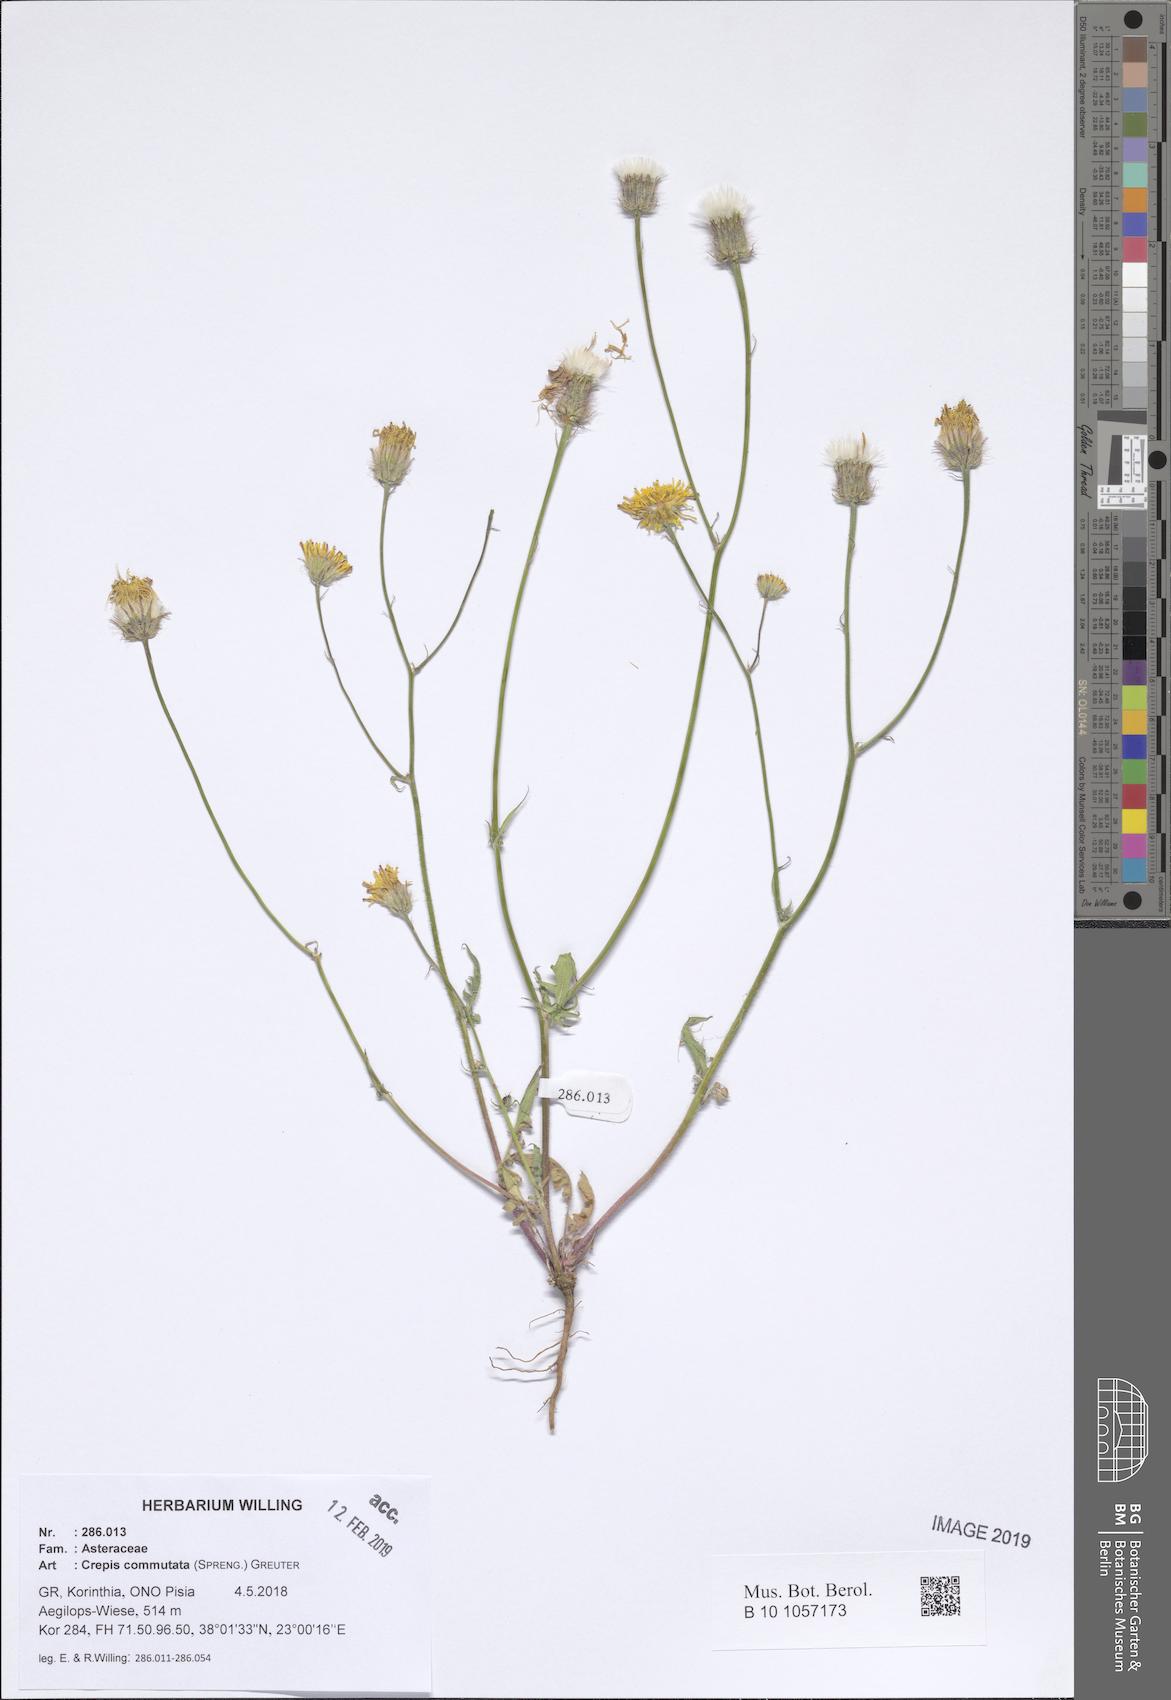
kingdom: Plantae
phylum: Tracheophyta
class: Magnoliopsida
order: Asterales
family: Asteraceae
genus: Crepis
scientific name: Crepis commutata
